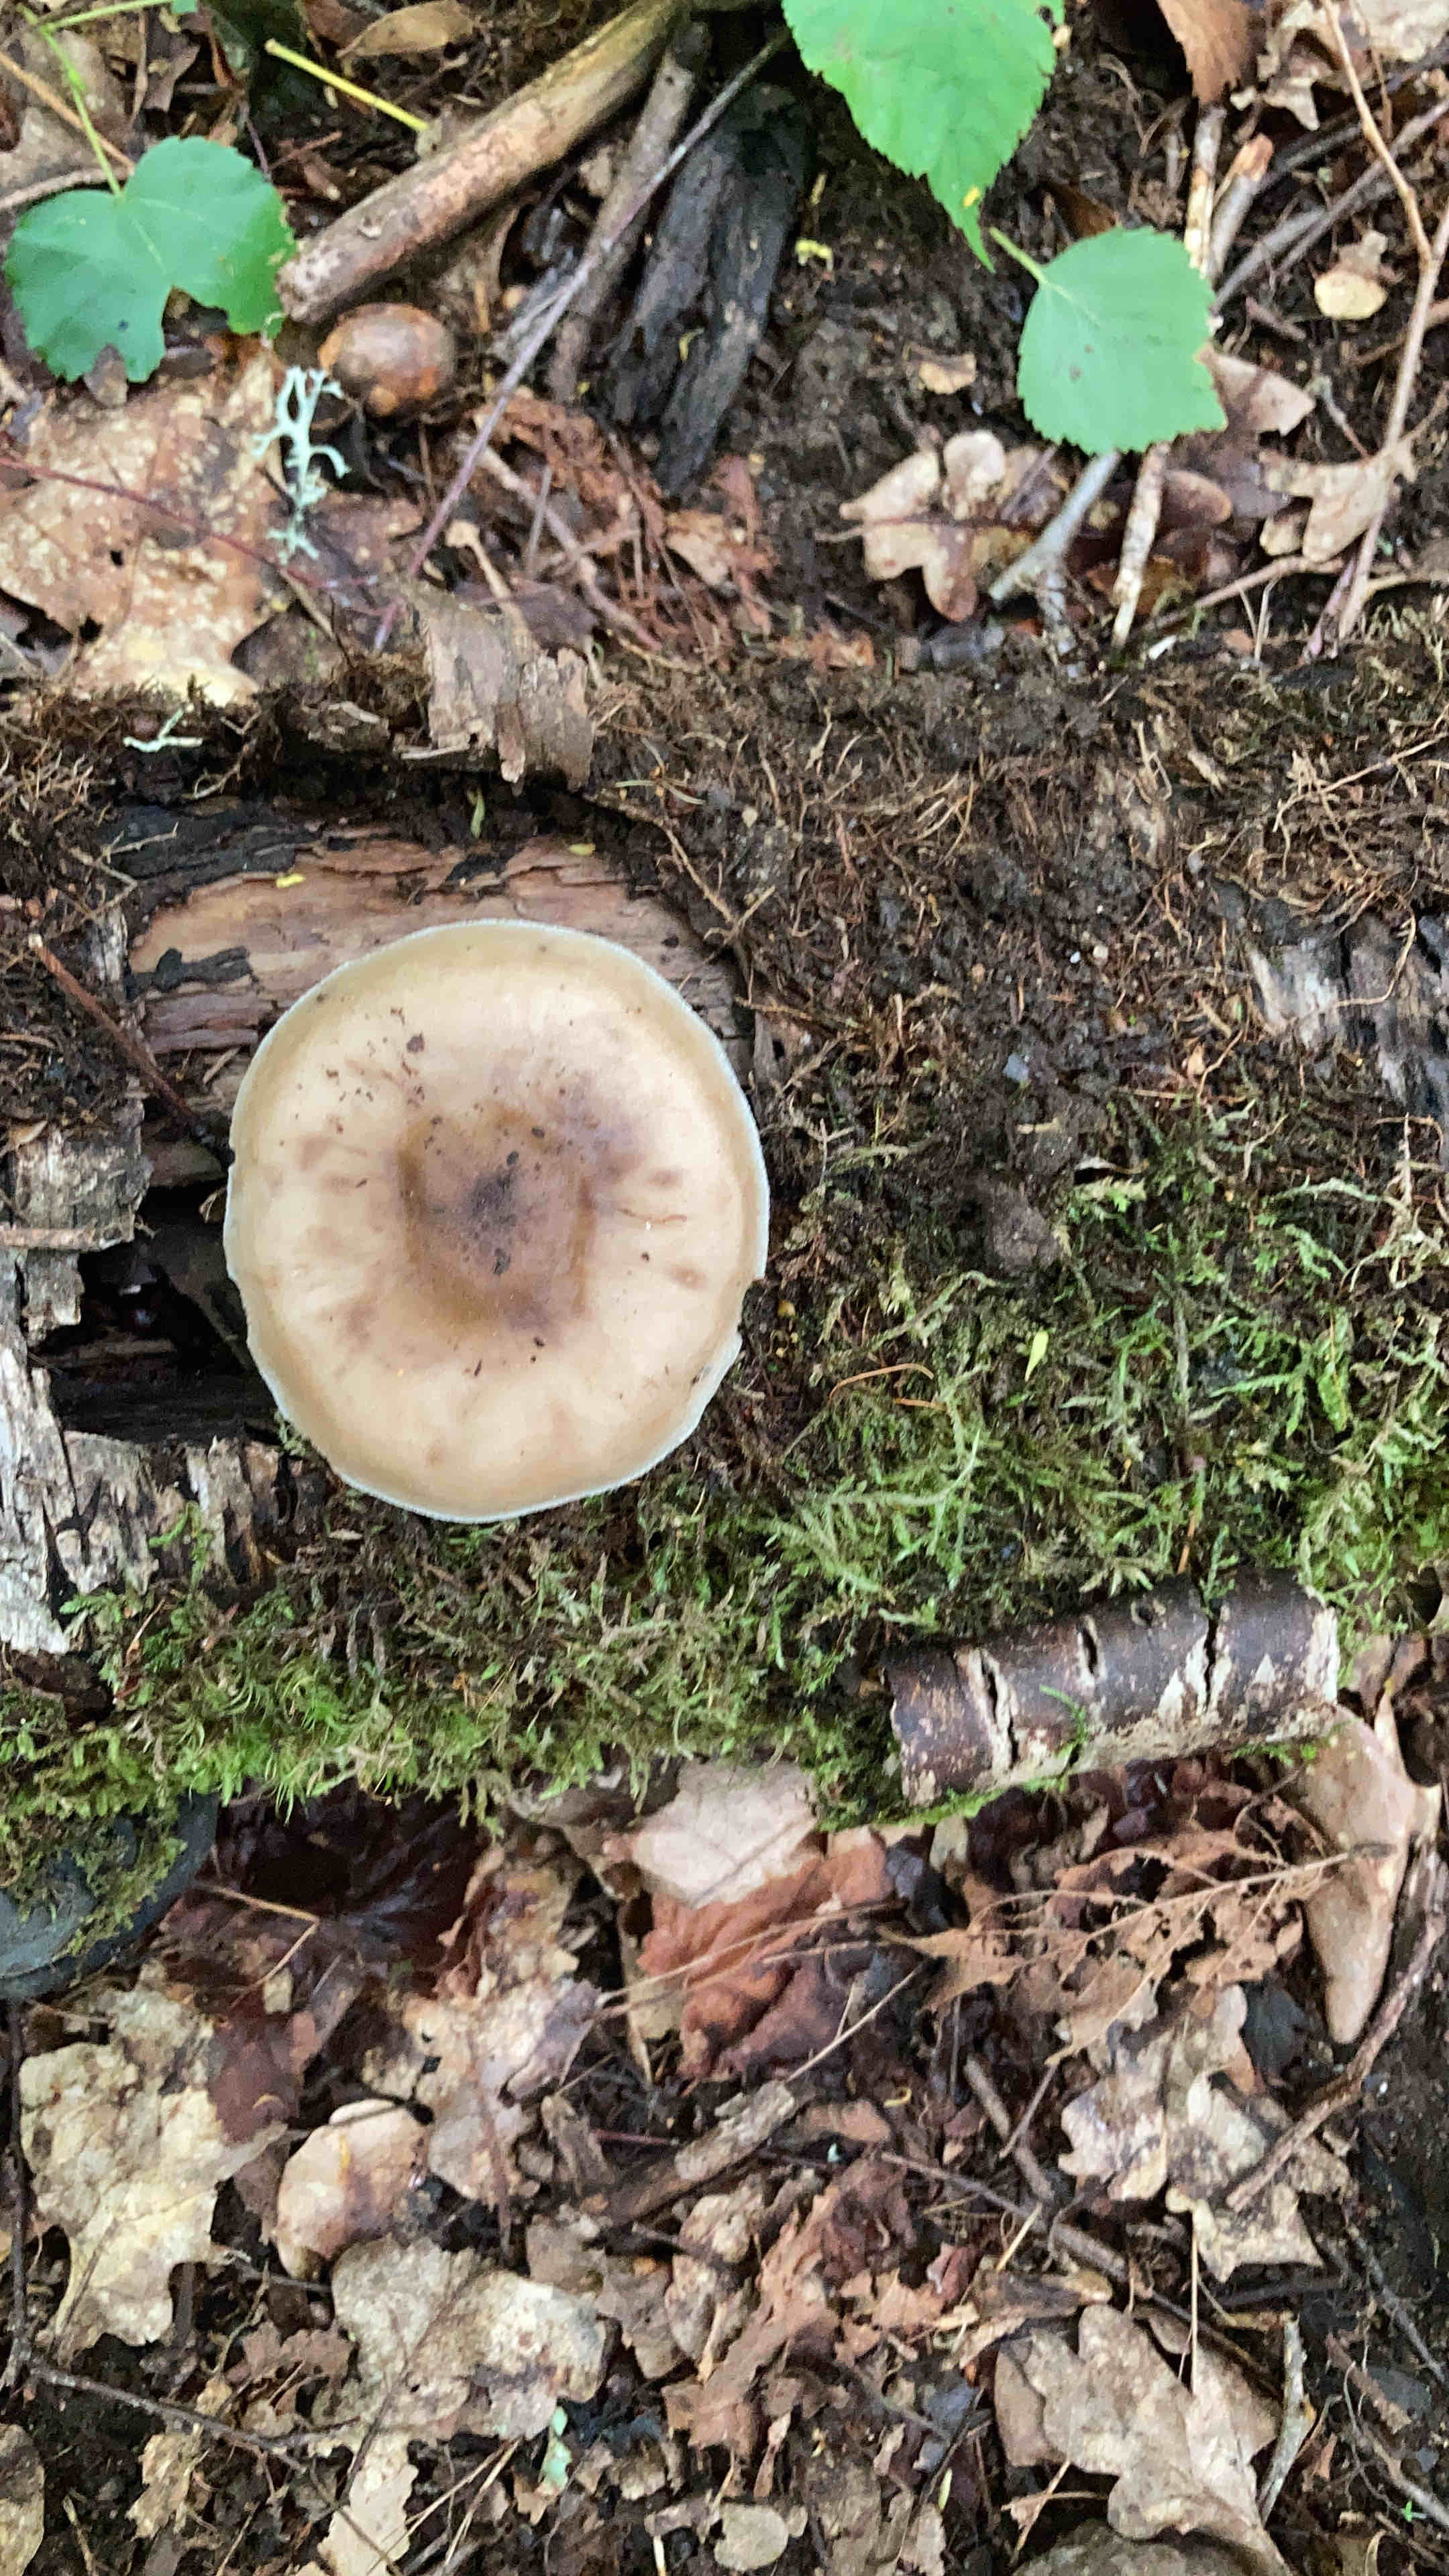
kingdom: Fungi
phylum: Basidiomycota
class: Agaricomycetes
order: Agaricales
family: Pluteaceae
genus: Pluteus
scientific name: Pluteus
